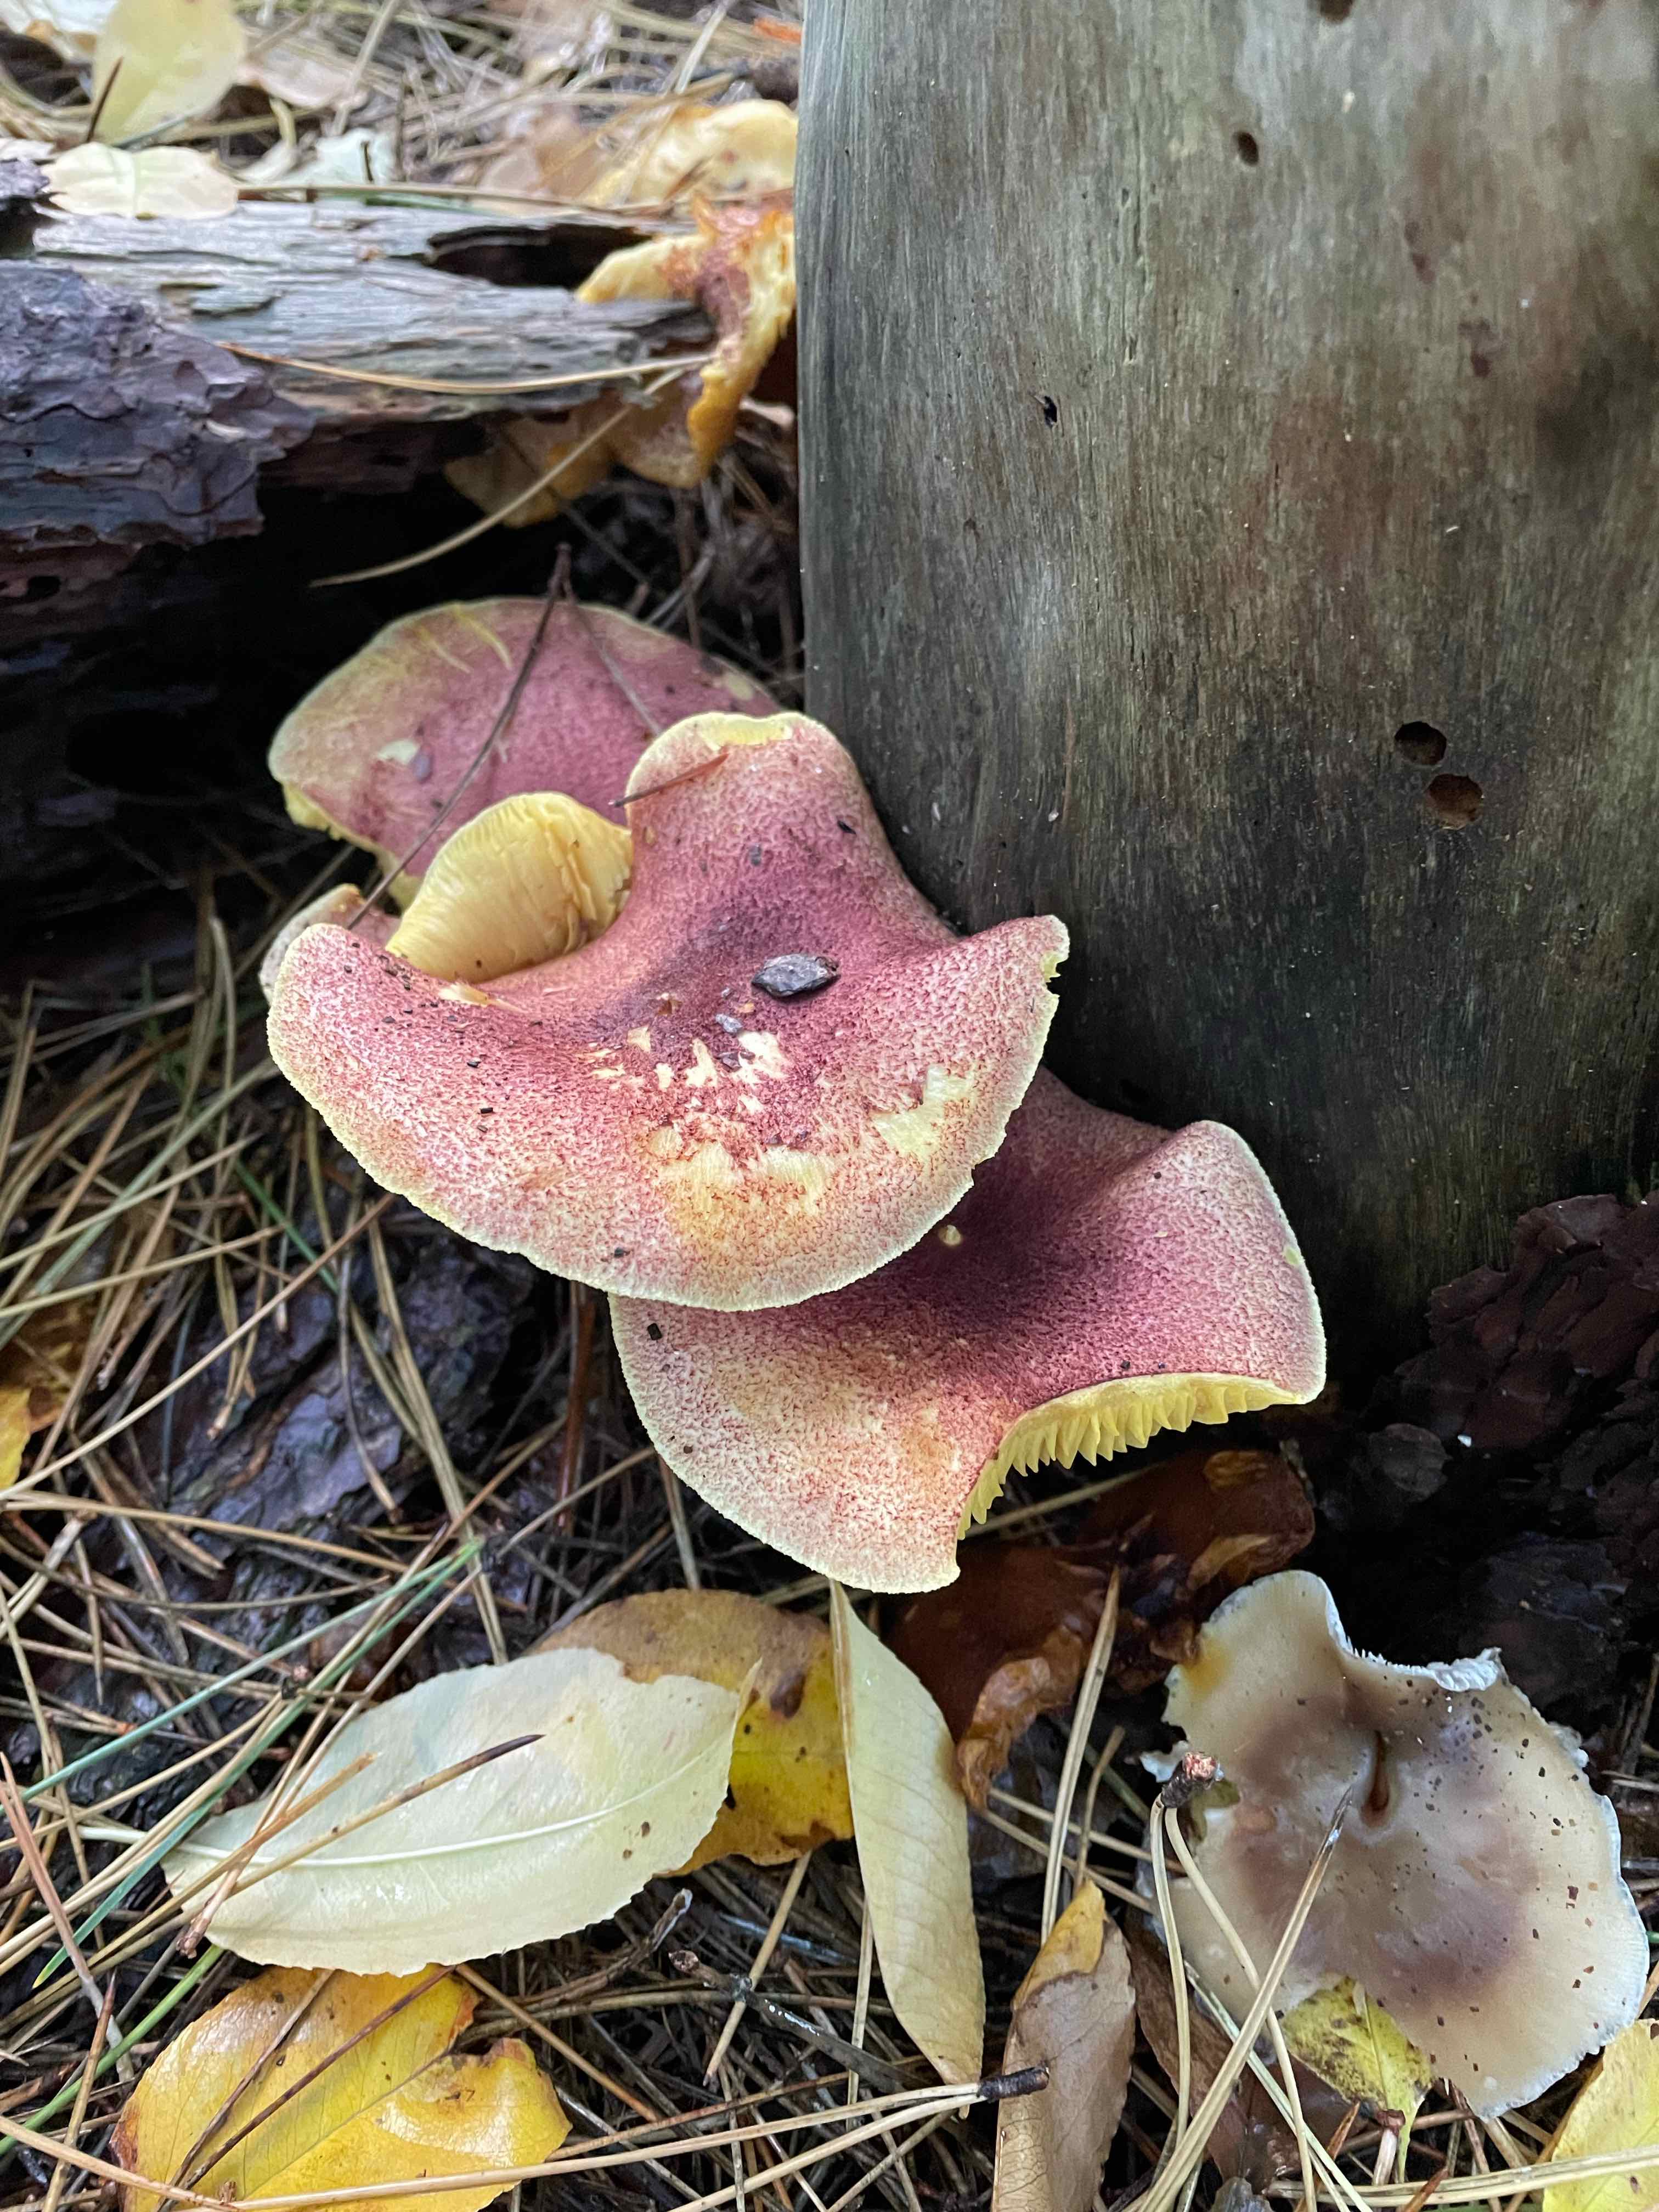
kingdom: Fungi
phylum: Basidiomycota
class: Agaricomycetes
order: Agaricales
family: Tricholomataceae
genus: Tricholomopsis
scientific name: Tricholomopsis rutilans
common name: purpur-væbnerhat
